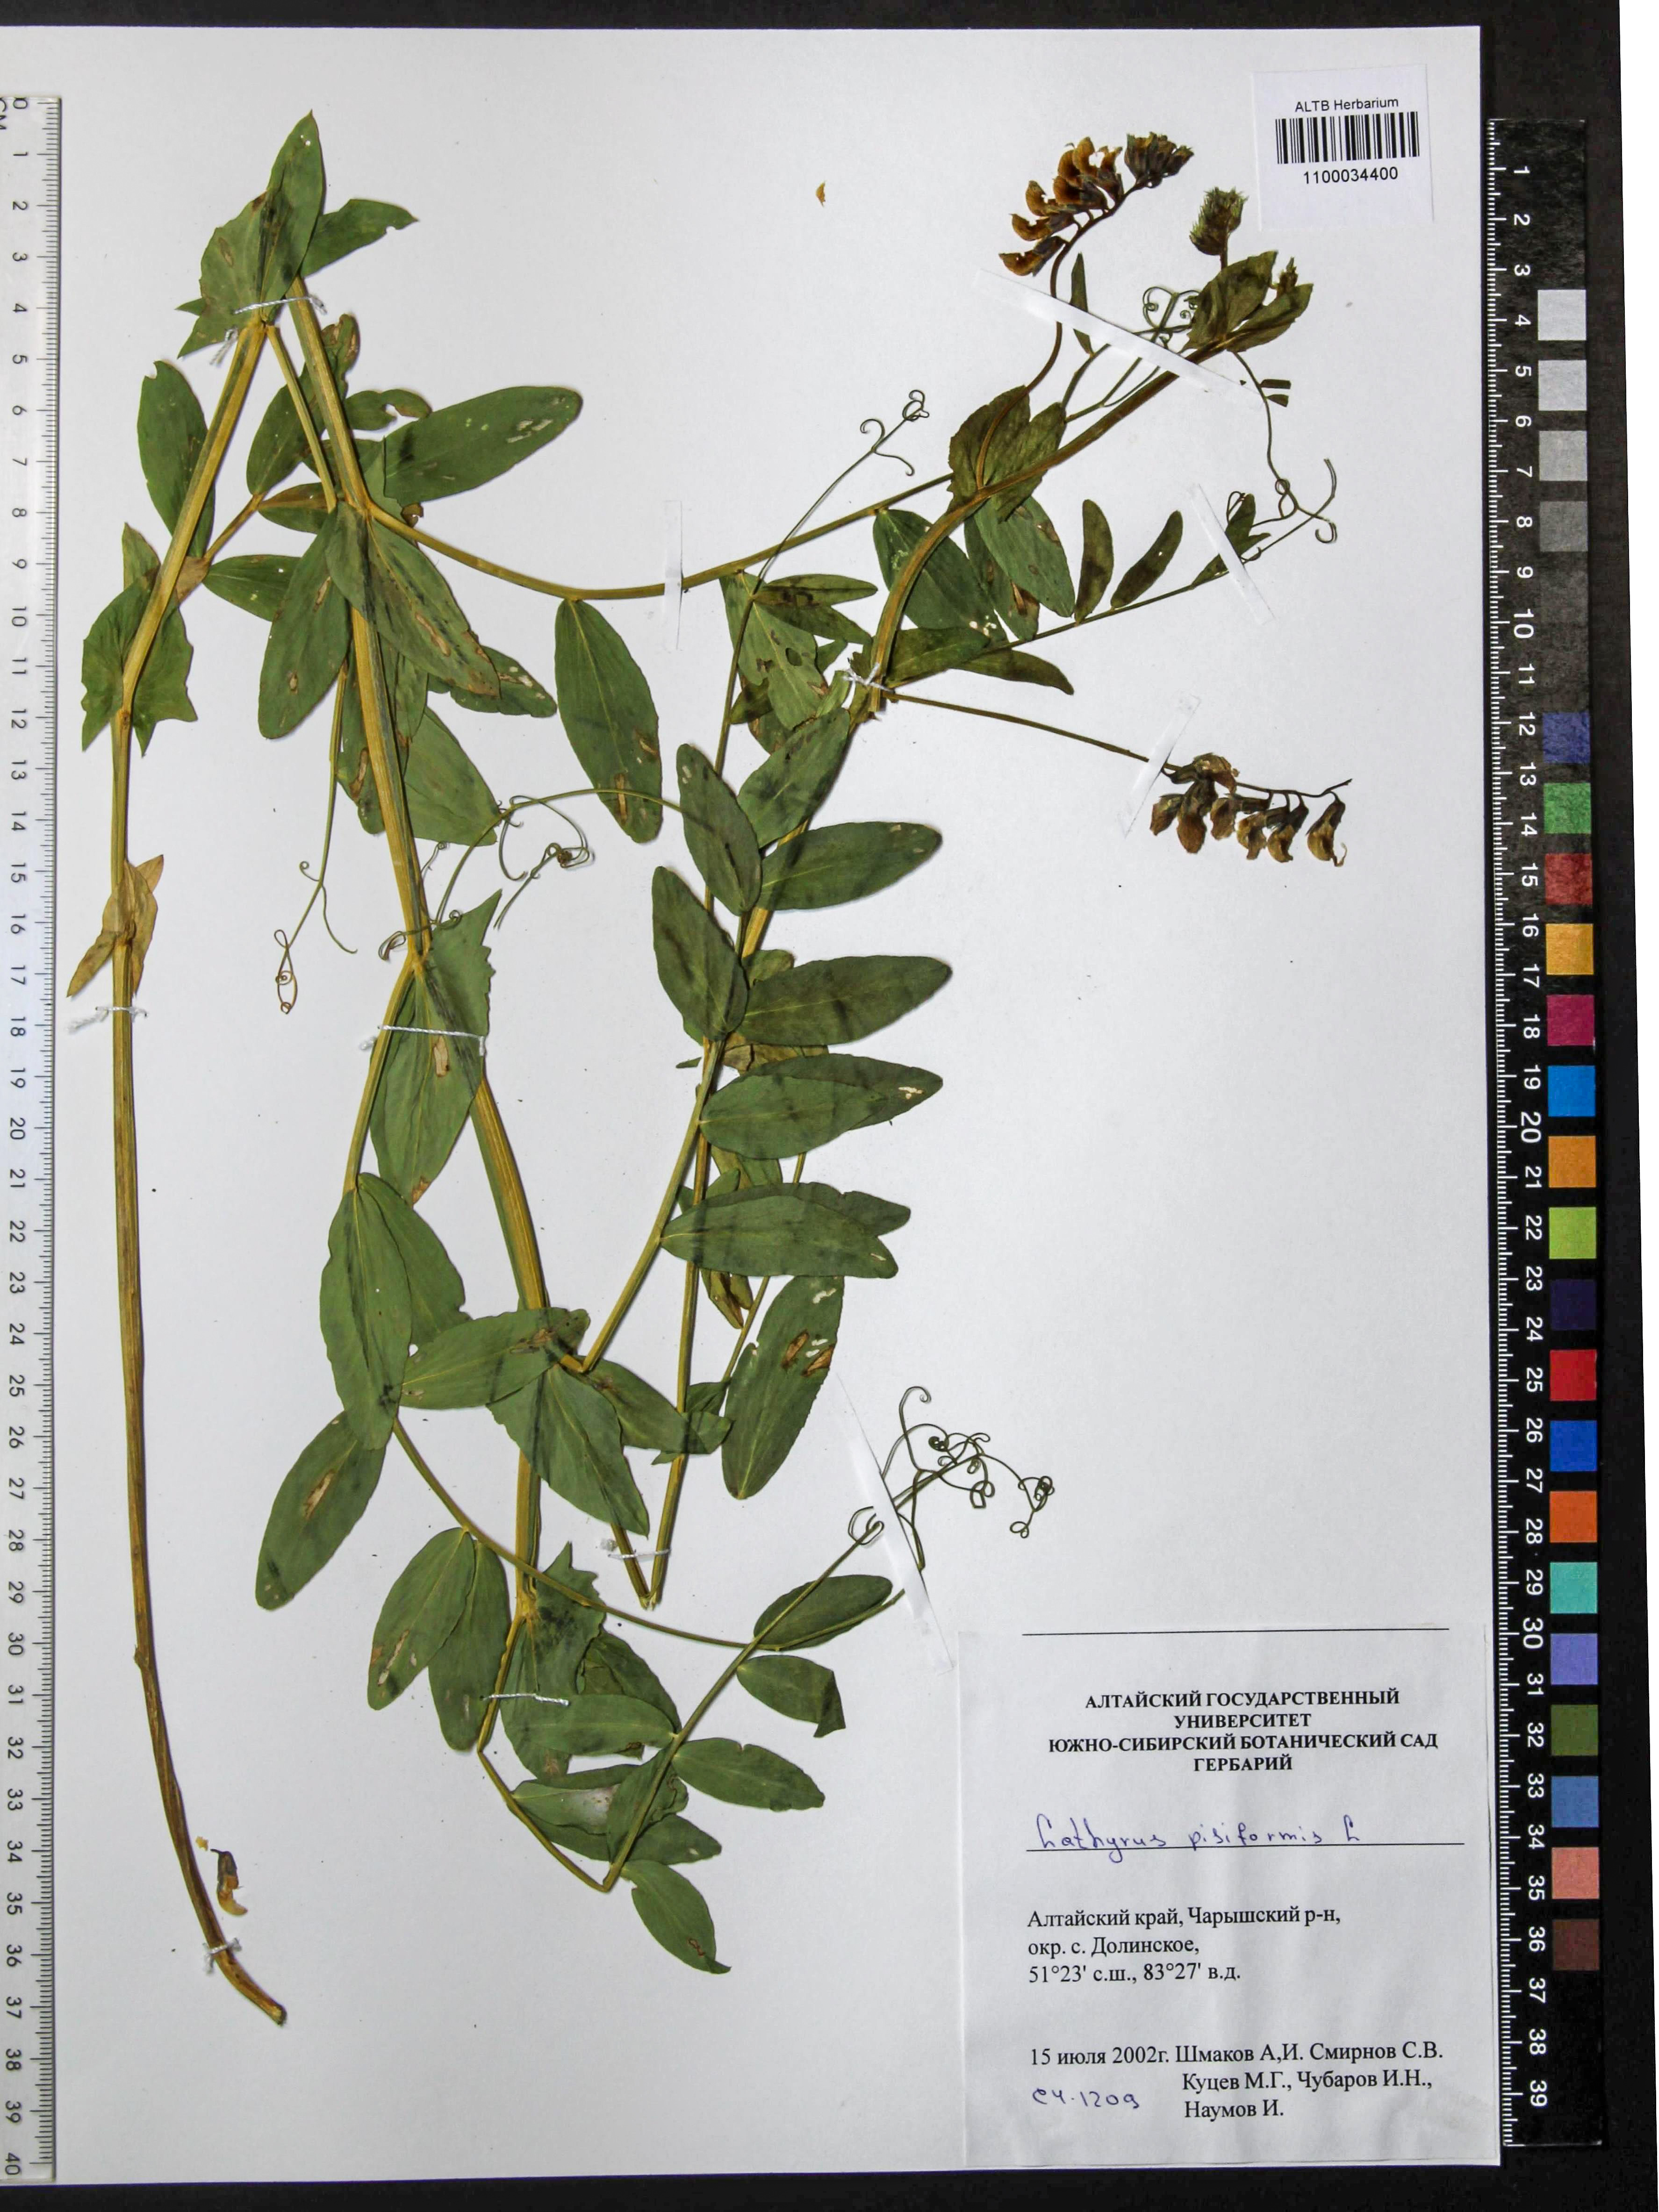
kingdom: Plantae
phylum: Tracheophyta
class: Magnoliopsida
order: Fabales
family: Fabaceae
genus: Lathyrus
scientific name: Lathyrus pisiformis
